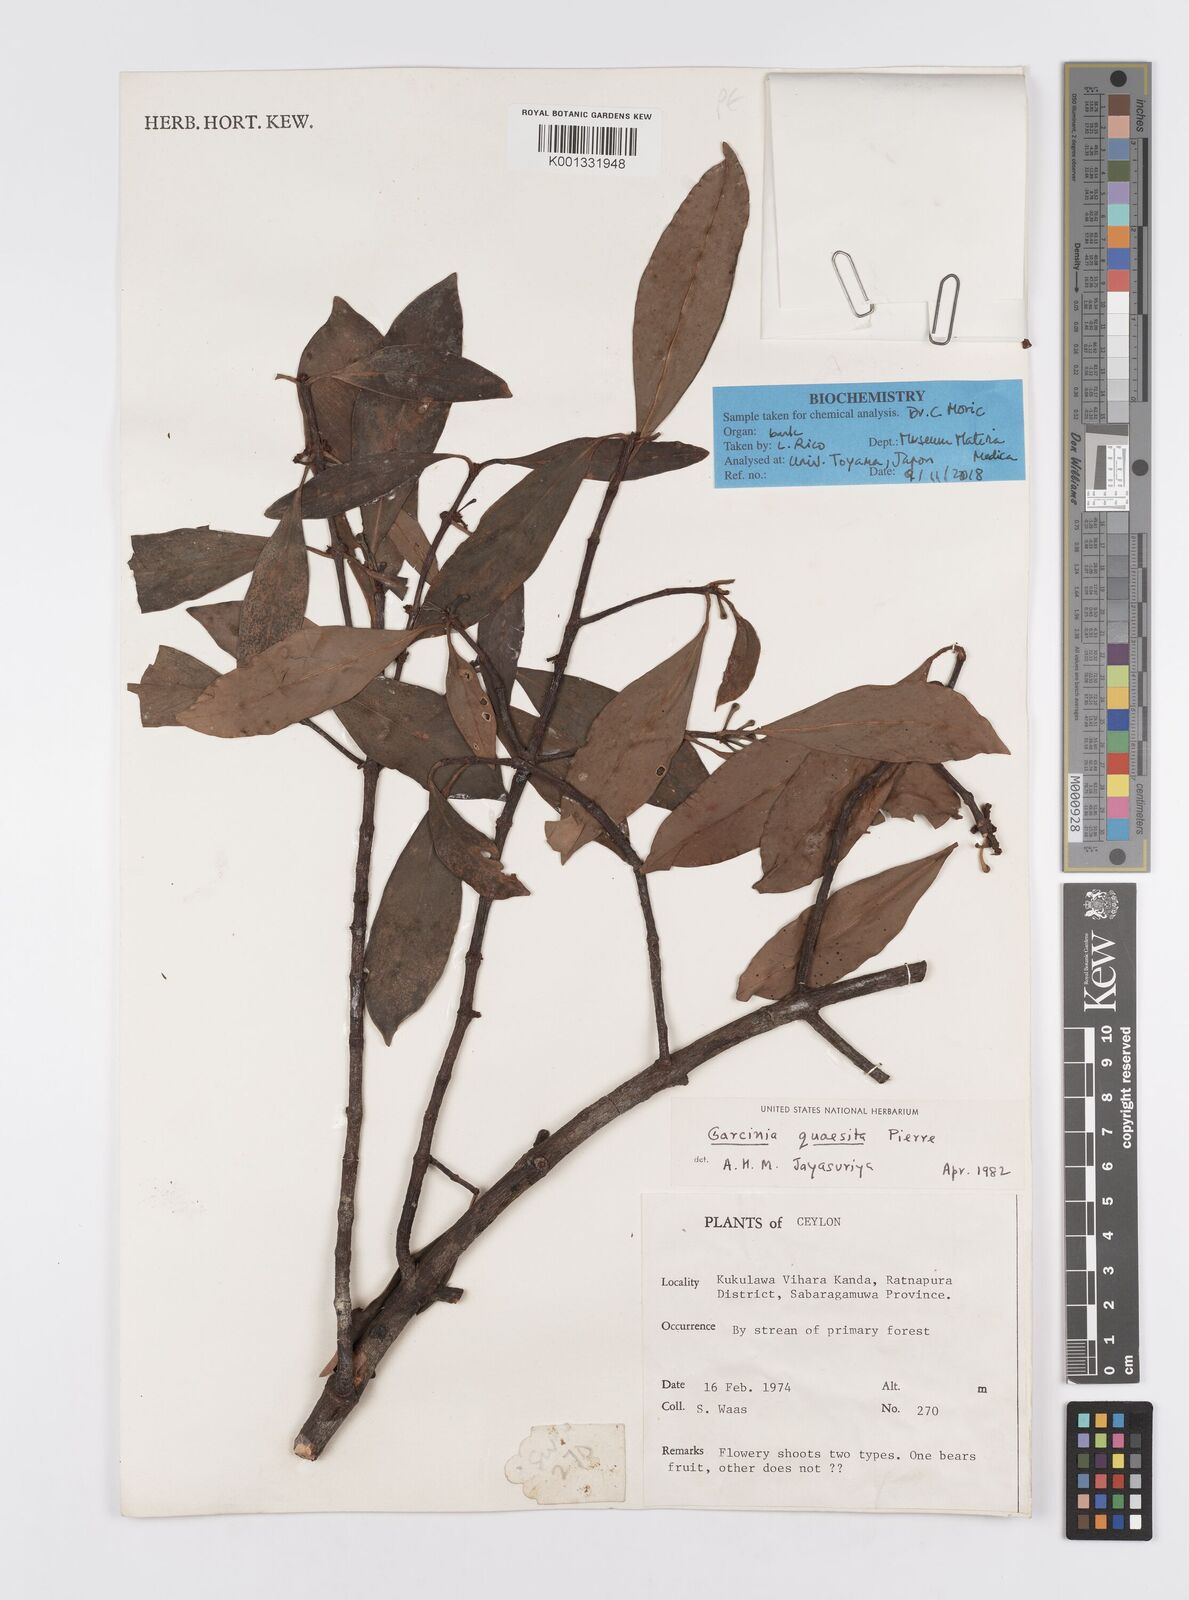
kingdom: Plantae
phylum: Tracheophyta
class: Magnoliopsida
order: Malpighiales
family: Clusiaceae
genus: Garcinia
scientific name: Garcinia quaesita
